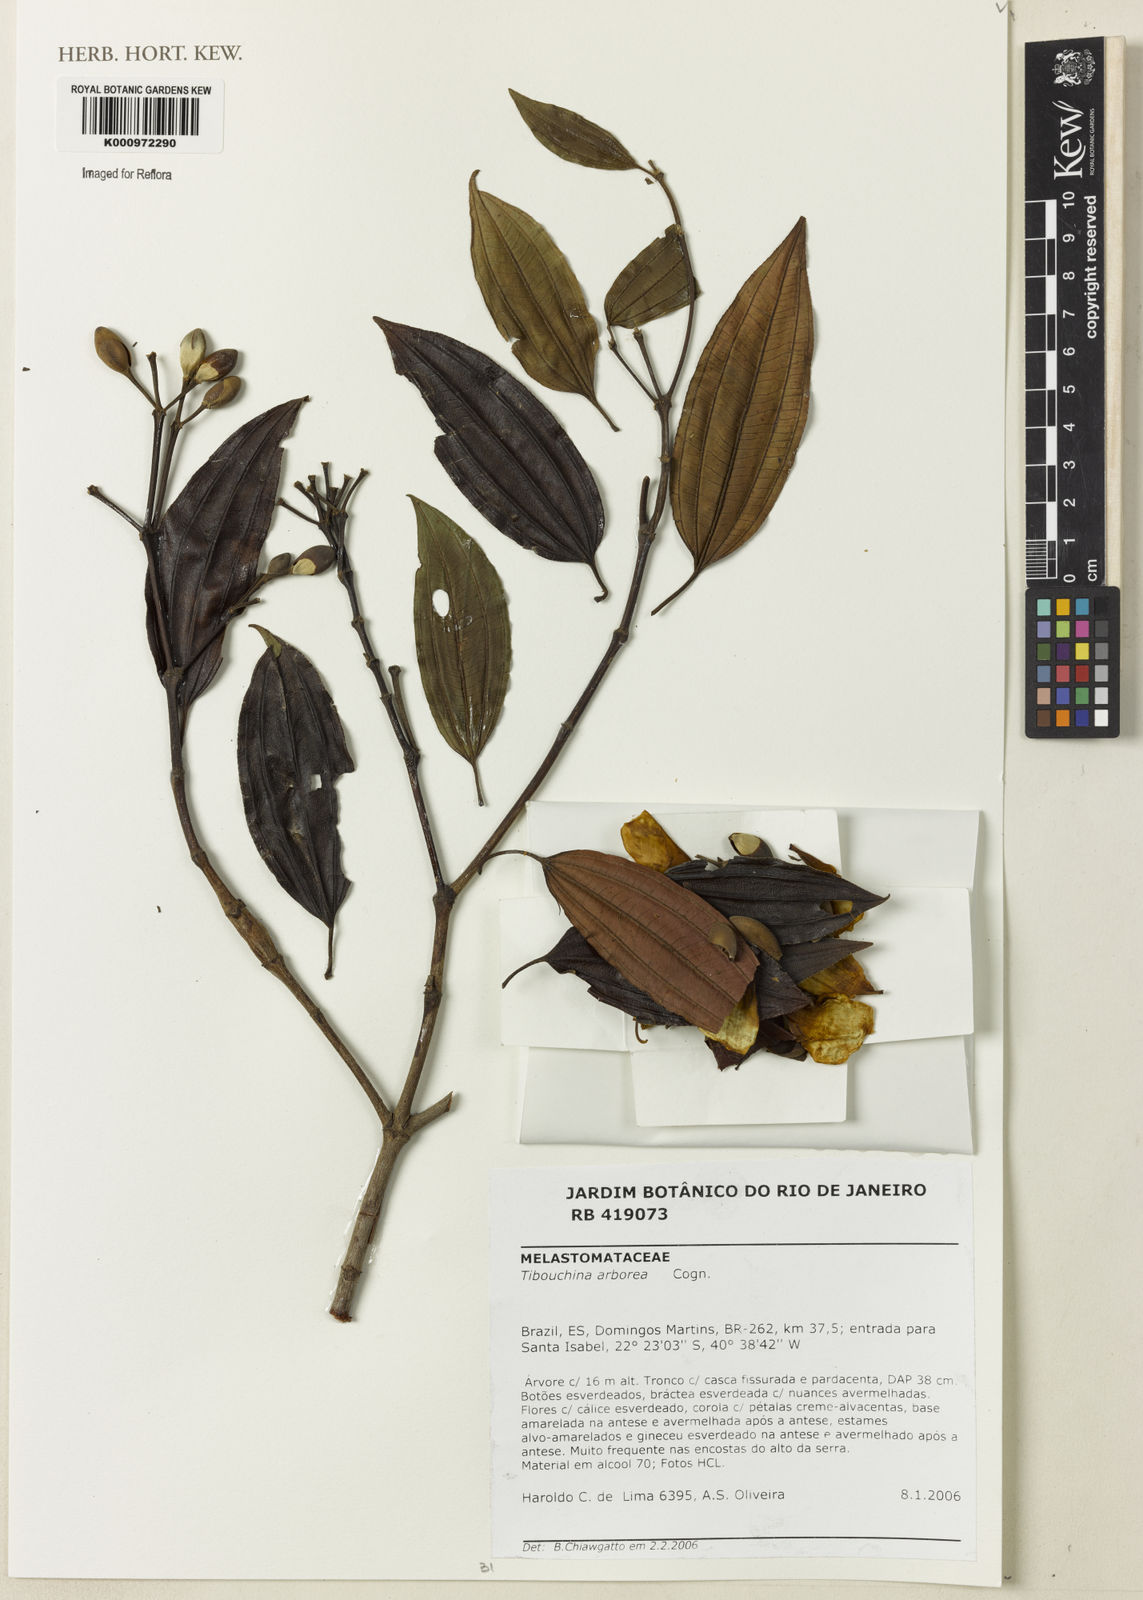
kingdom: Plantae
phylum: Tracheophyta
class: Magnoliopsida
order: Myrtales
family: Melastomataceae
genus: Pleroma
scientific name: Pleroma arboreum
